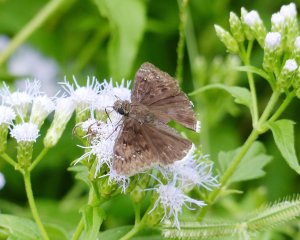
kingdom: Animalia
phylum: Arthropoda
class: Insecta
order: Lepidoptera
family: Hesperiidae
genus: Erynnis
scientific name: Erynnis funeralis
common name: Funereal Duskywing
